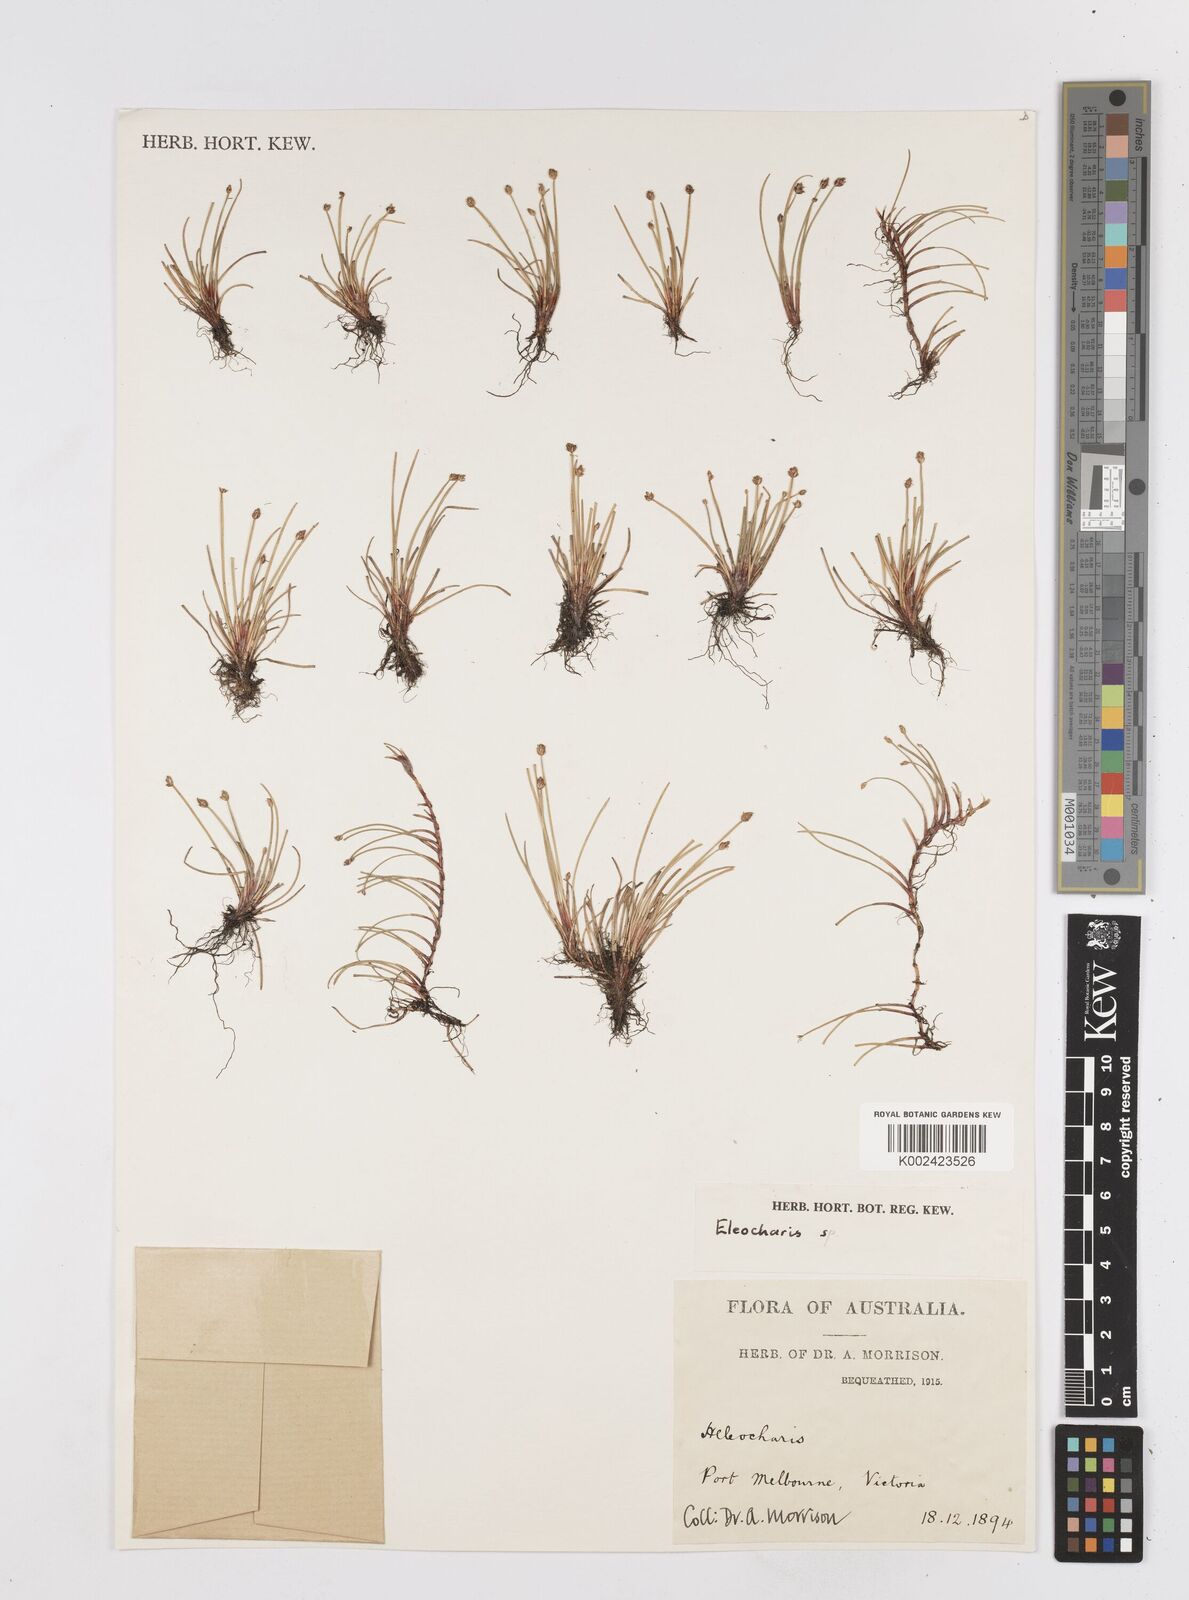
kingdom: Plantae
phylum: Tracheophyta
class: Liliopsida
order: Poales
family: Cyperaceae
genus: Eleocharis
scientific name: Eleocharis
